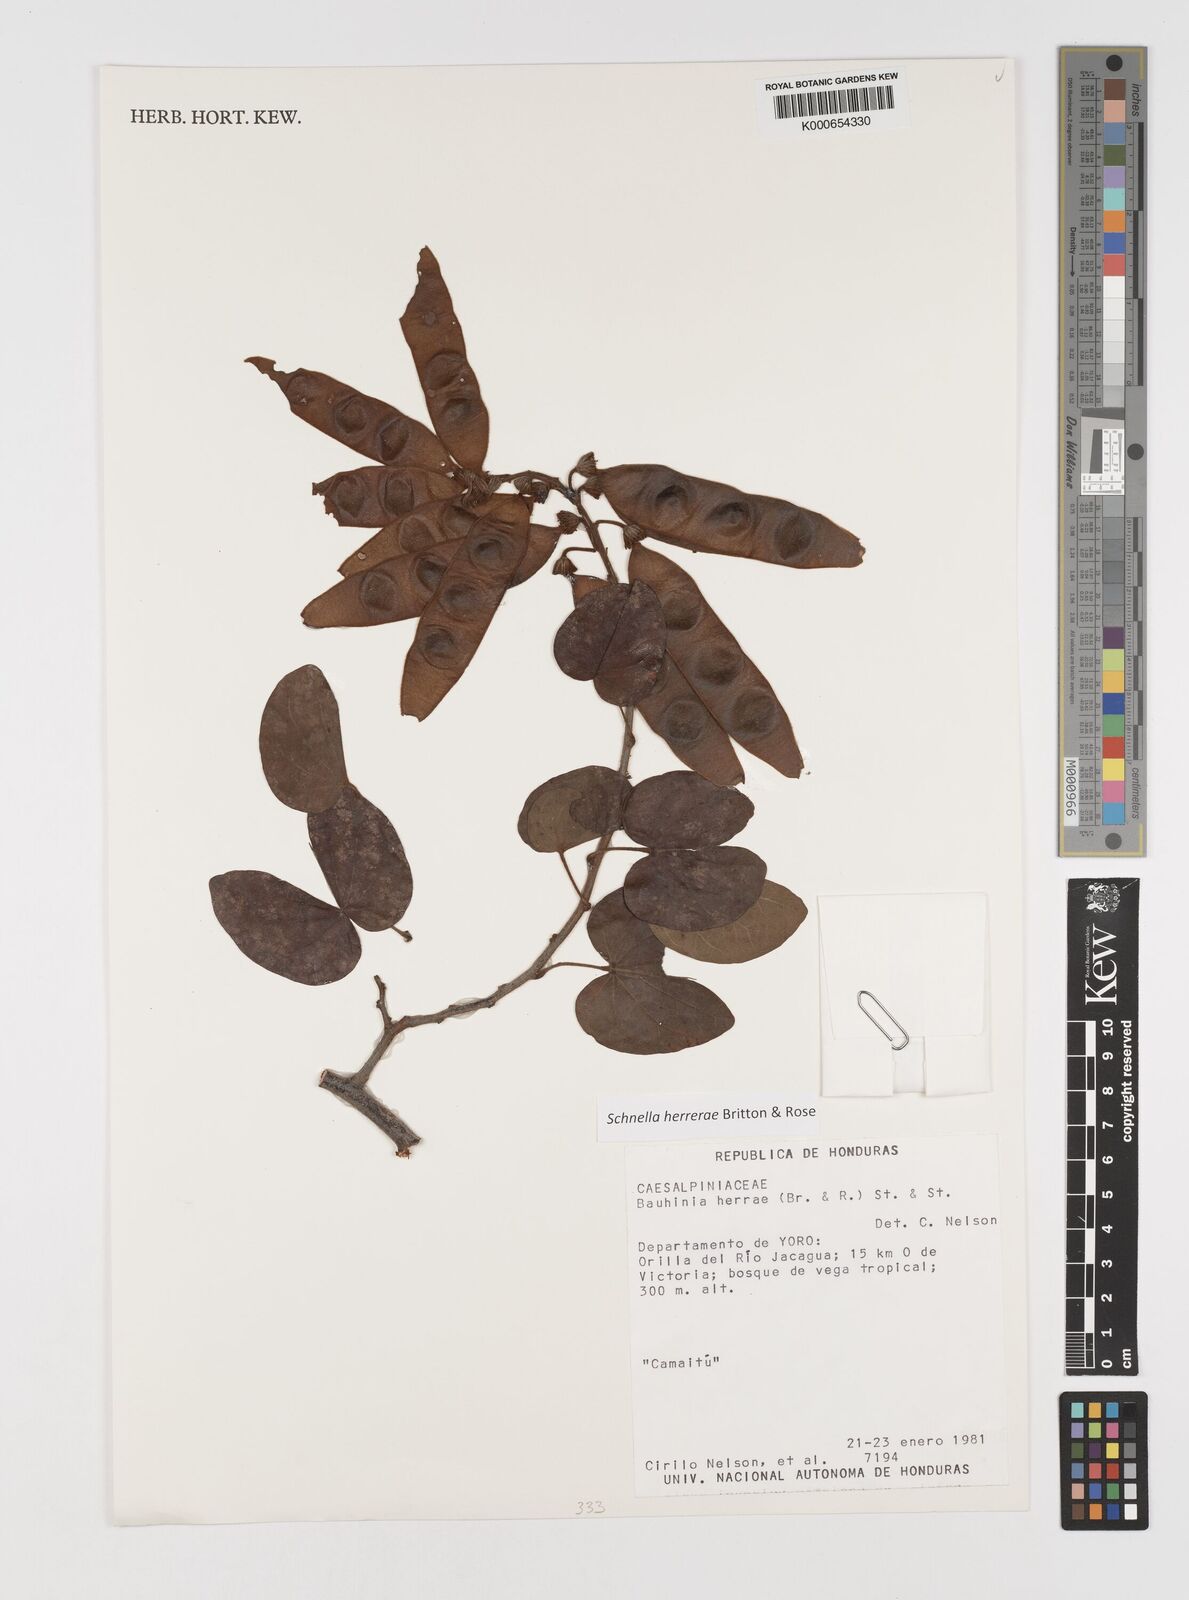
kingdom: Plantae
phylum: Tracheophyta
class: Magnoliopsida
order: Fabales
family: Fabaceae
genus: Schnella
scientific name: Schnella herrerae
